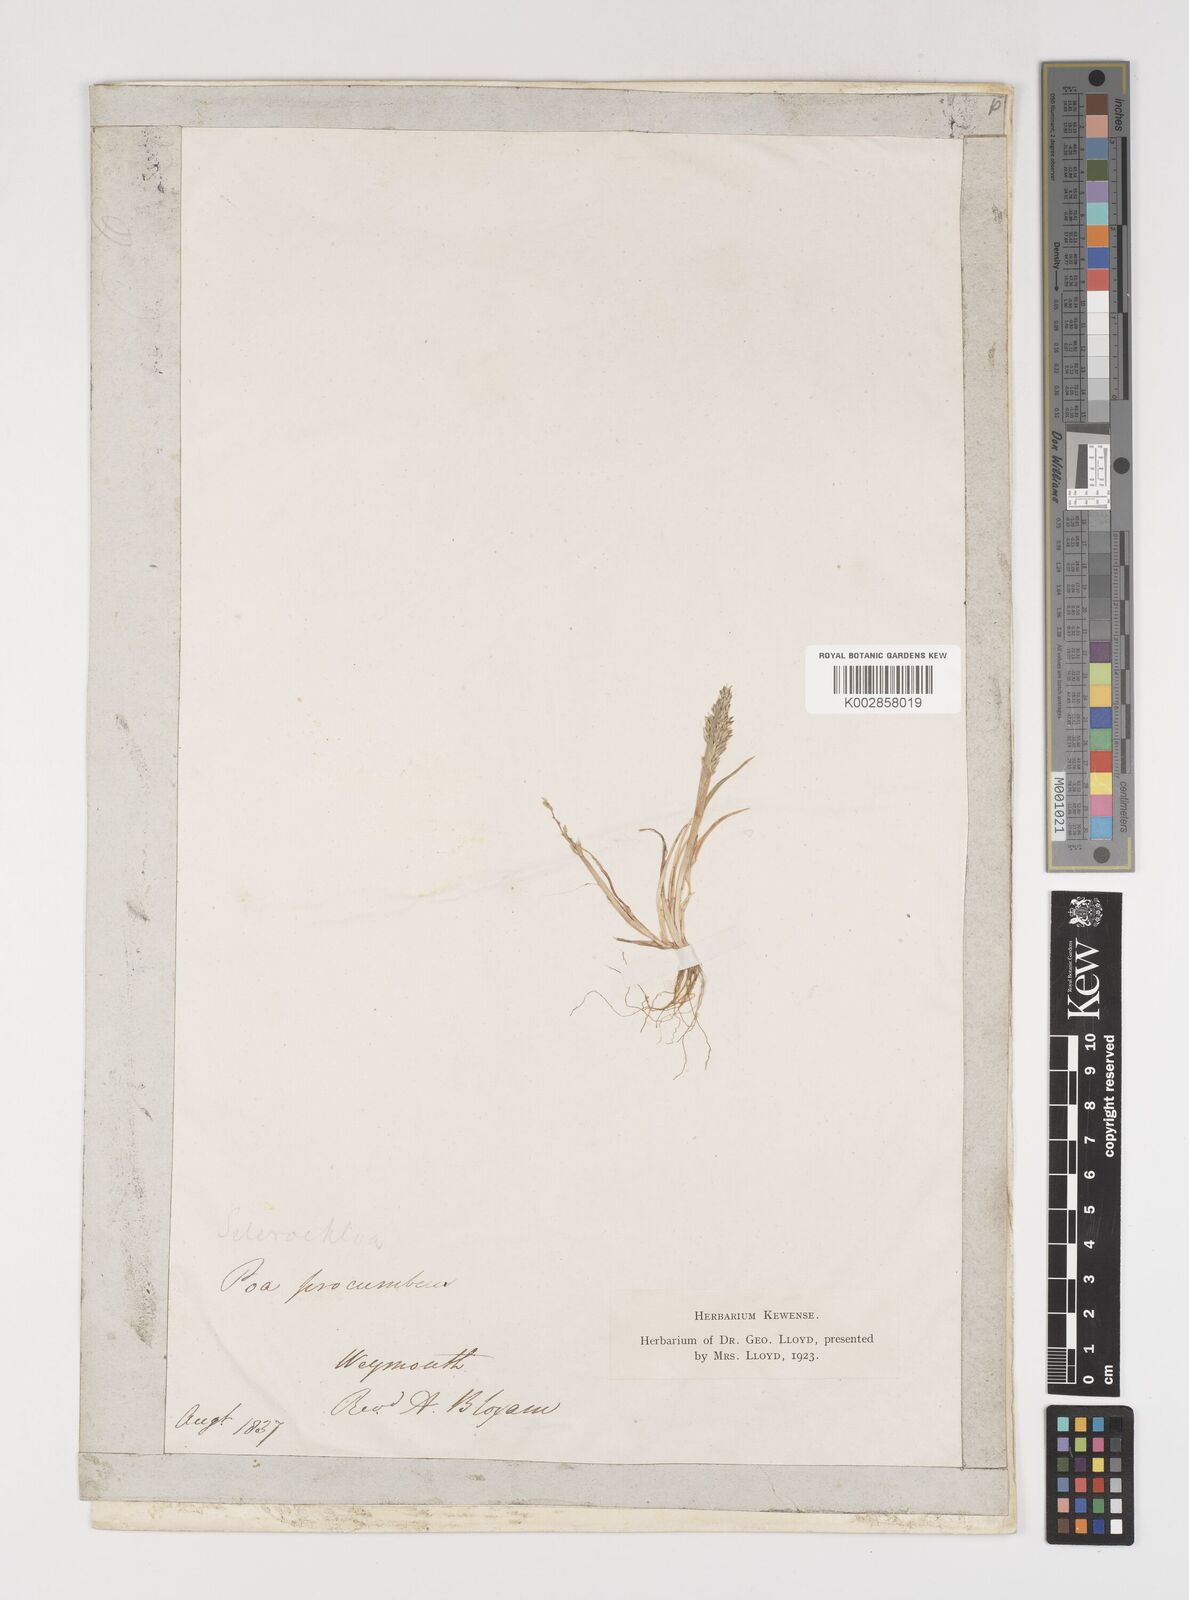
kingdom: Plantae
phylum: Tracheophyta
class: Liliopsida
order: Poales
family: Poaceae
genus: Puccinellia
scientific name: Puccinellia rupestris
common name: Stiff saltmarsh-grass
